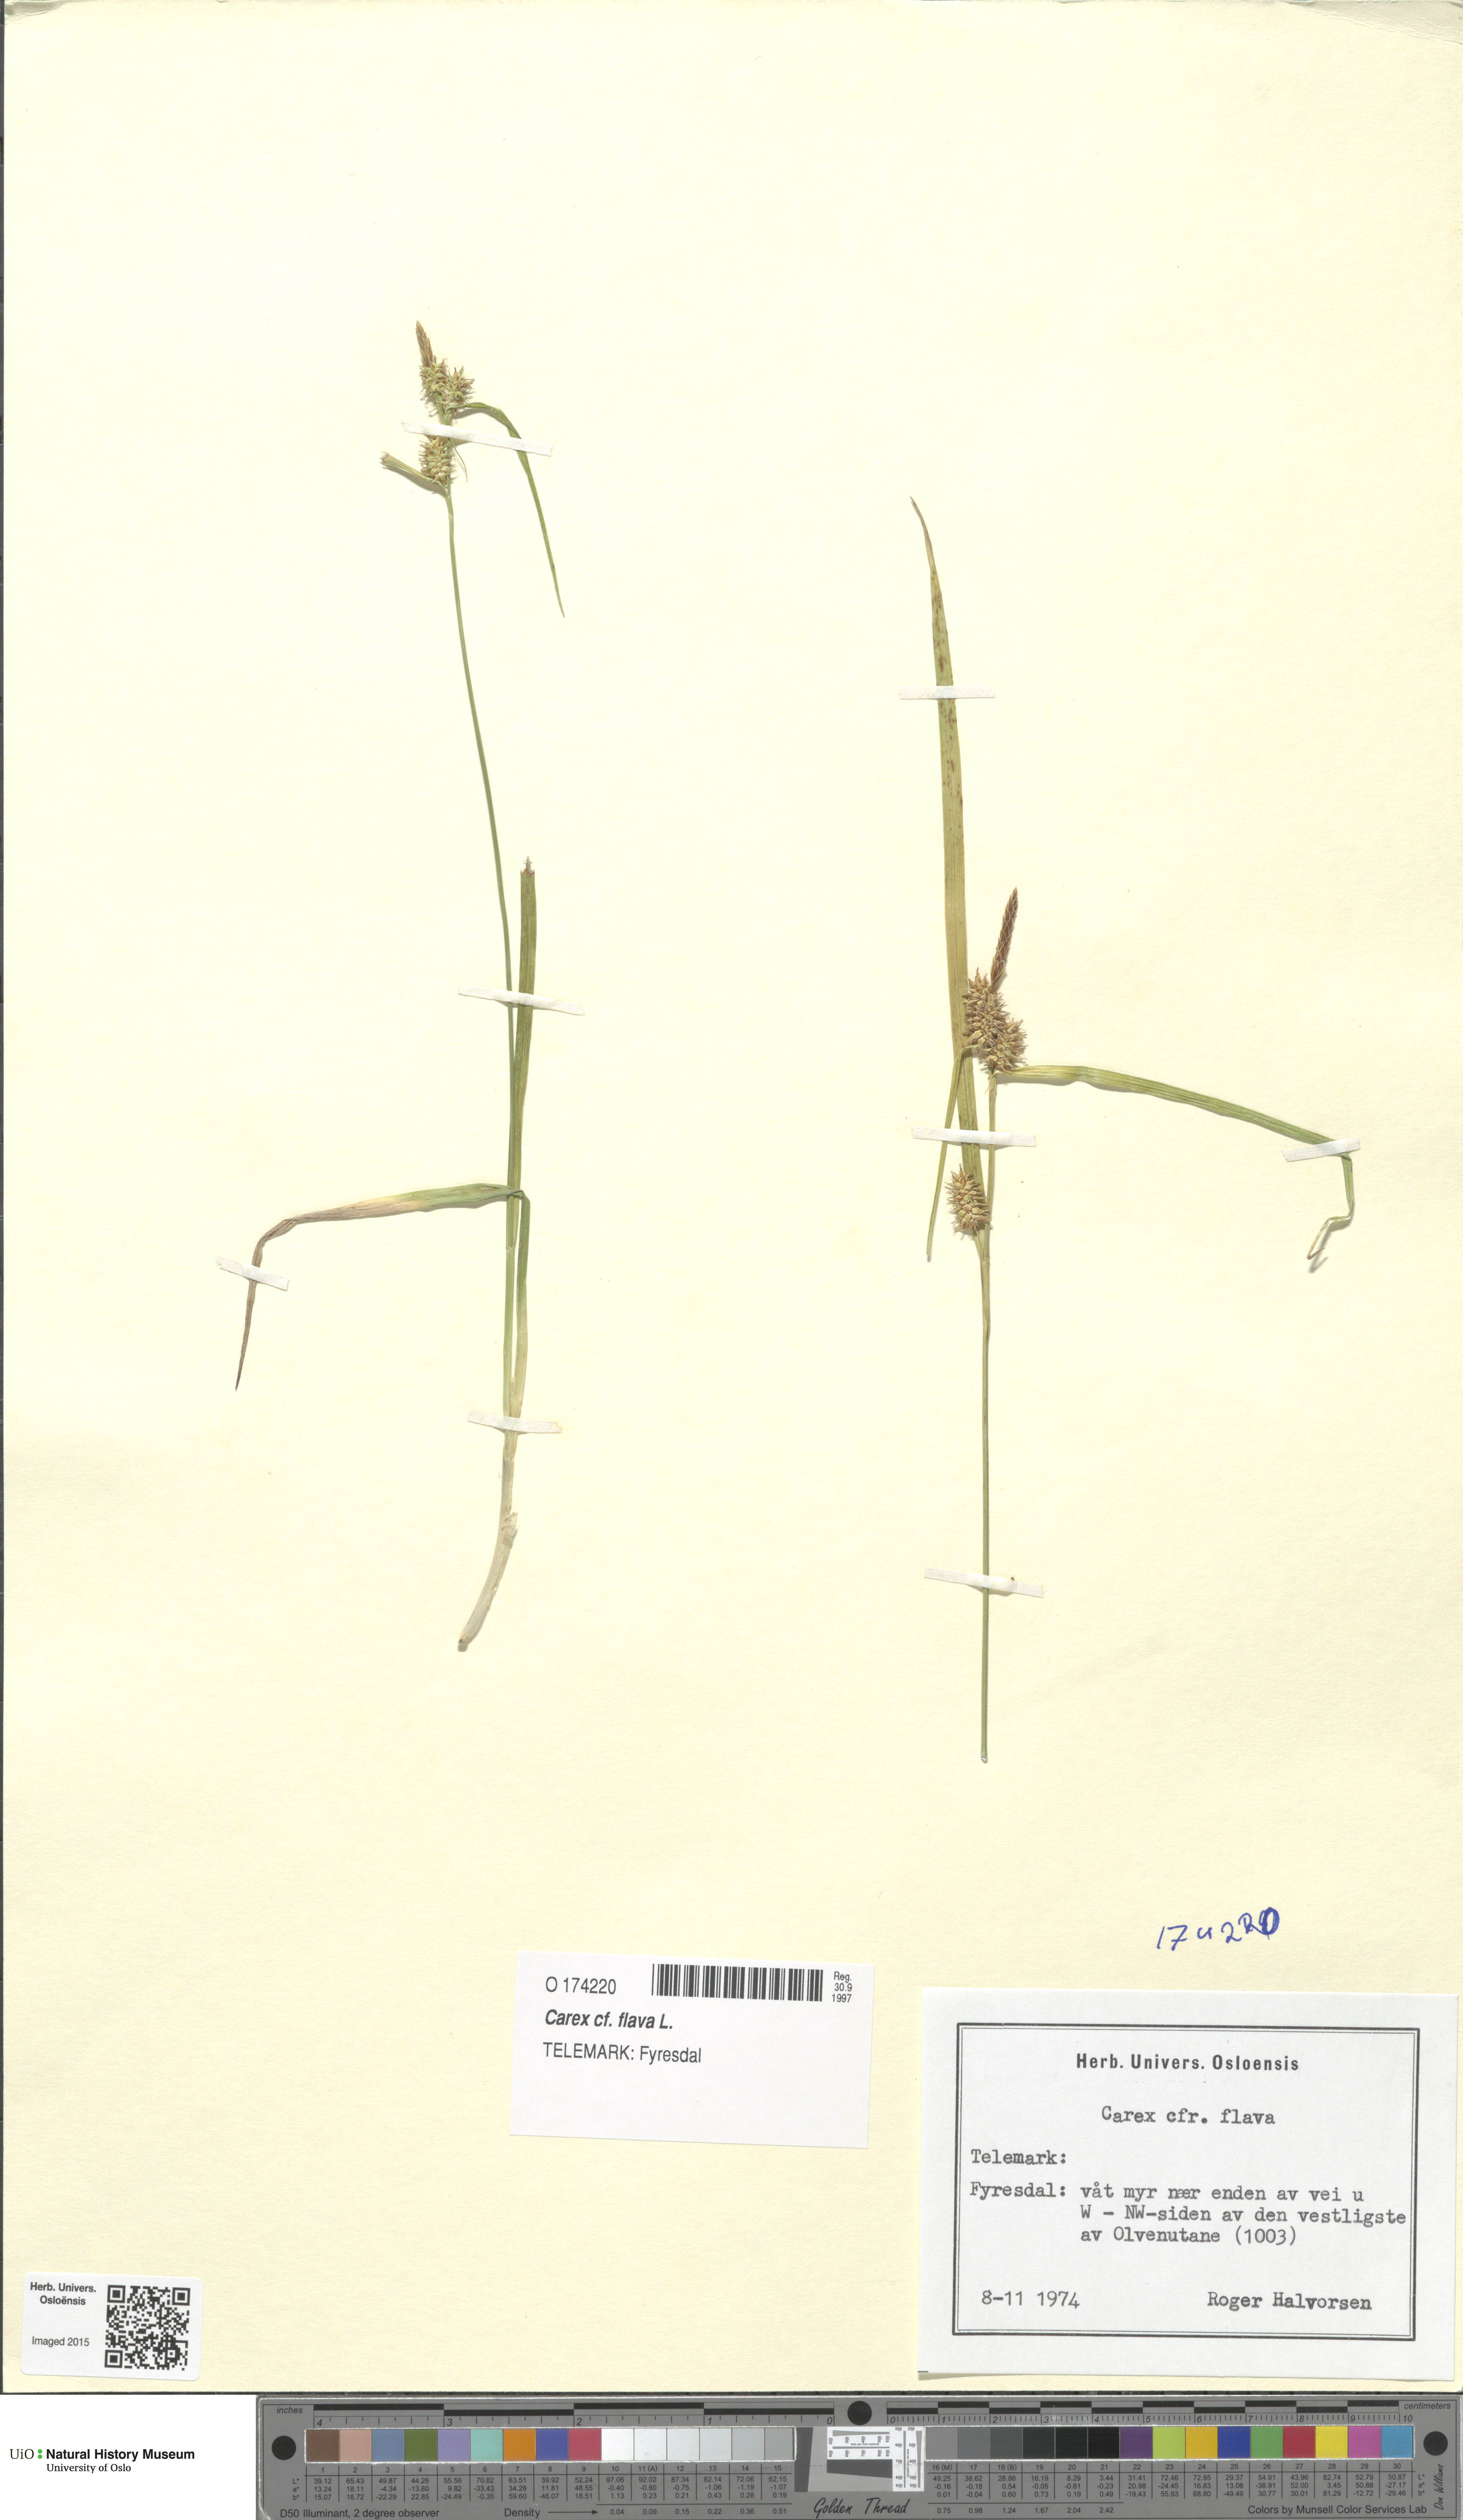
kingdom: Plantae
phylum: Tracheophyta
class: Liliopsida
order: Poales
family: Cyperaceae
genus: Carex
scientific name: Carex flava
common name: Large yellow-sedge
